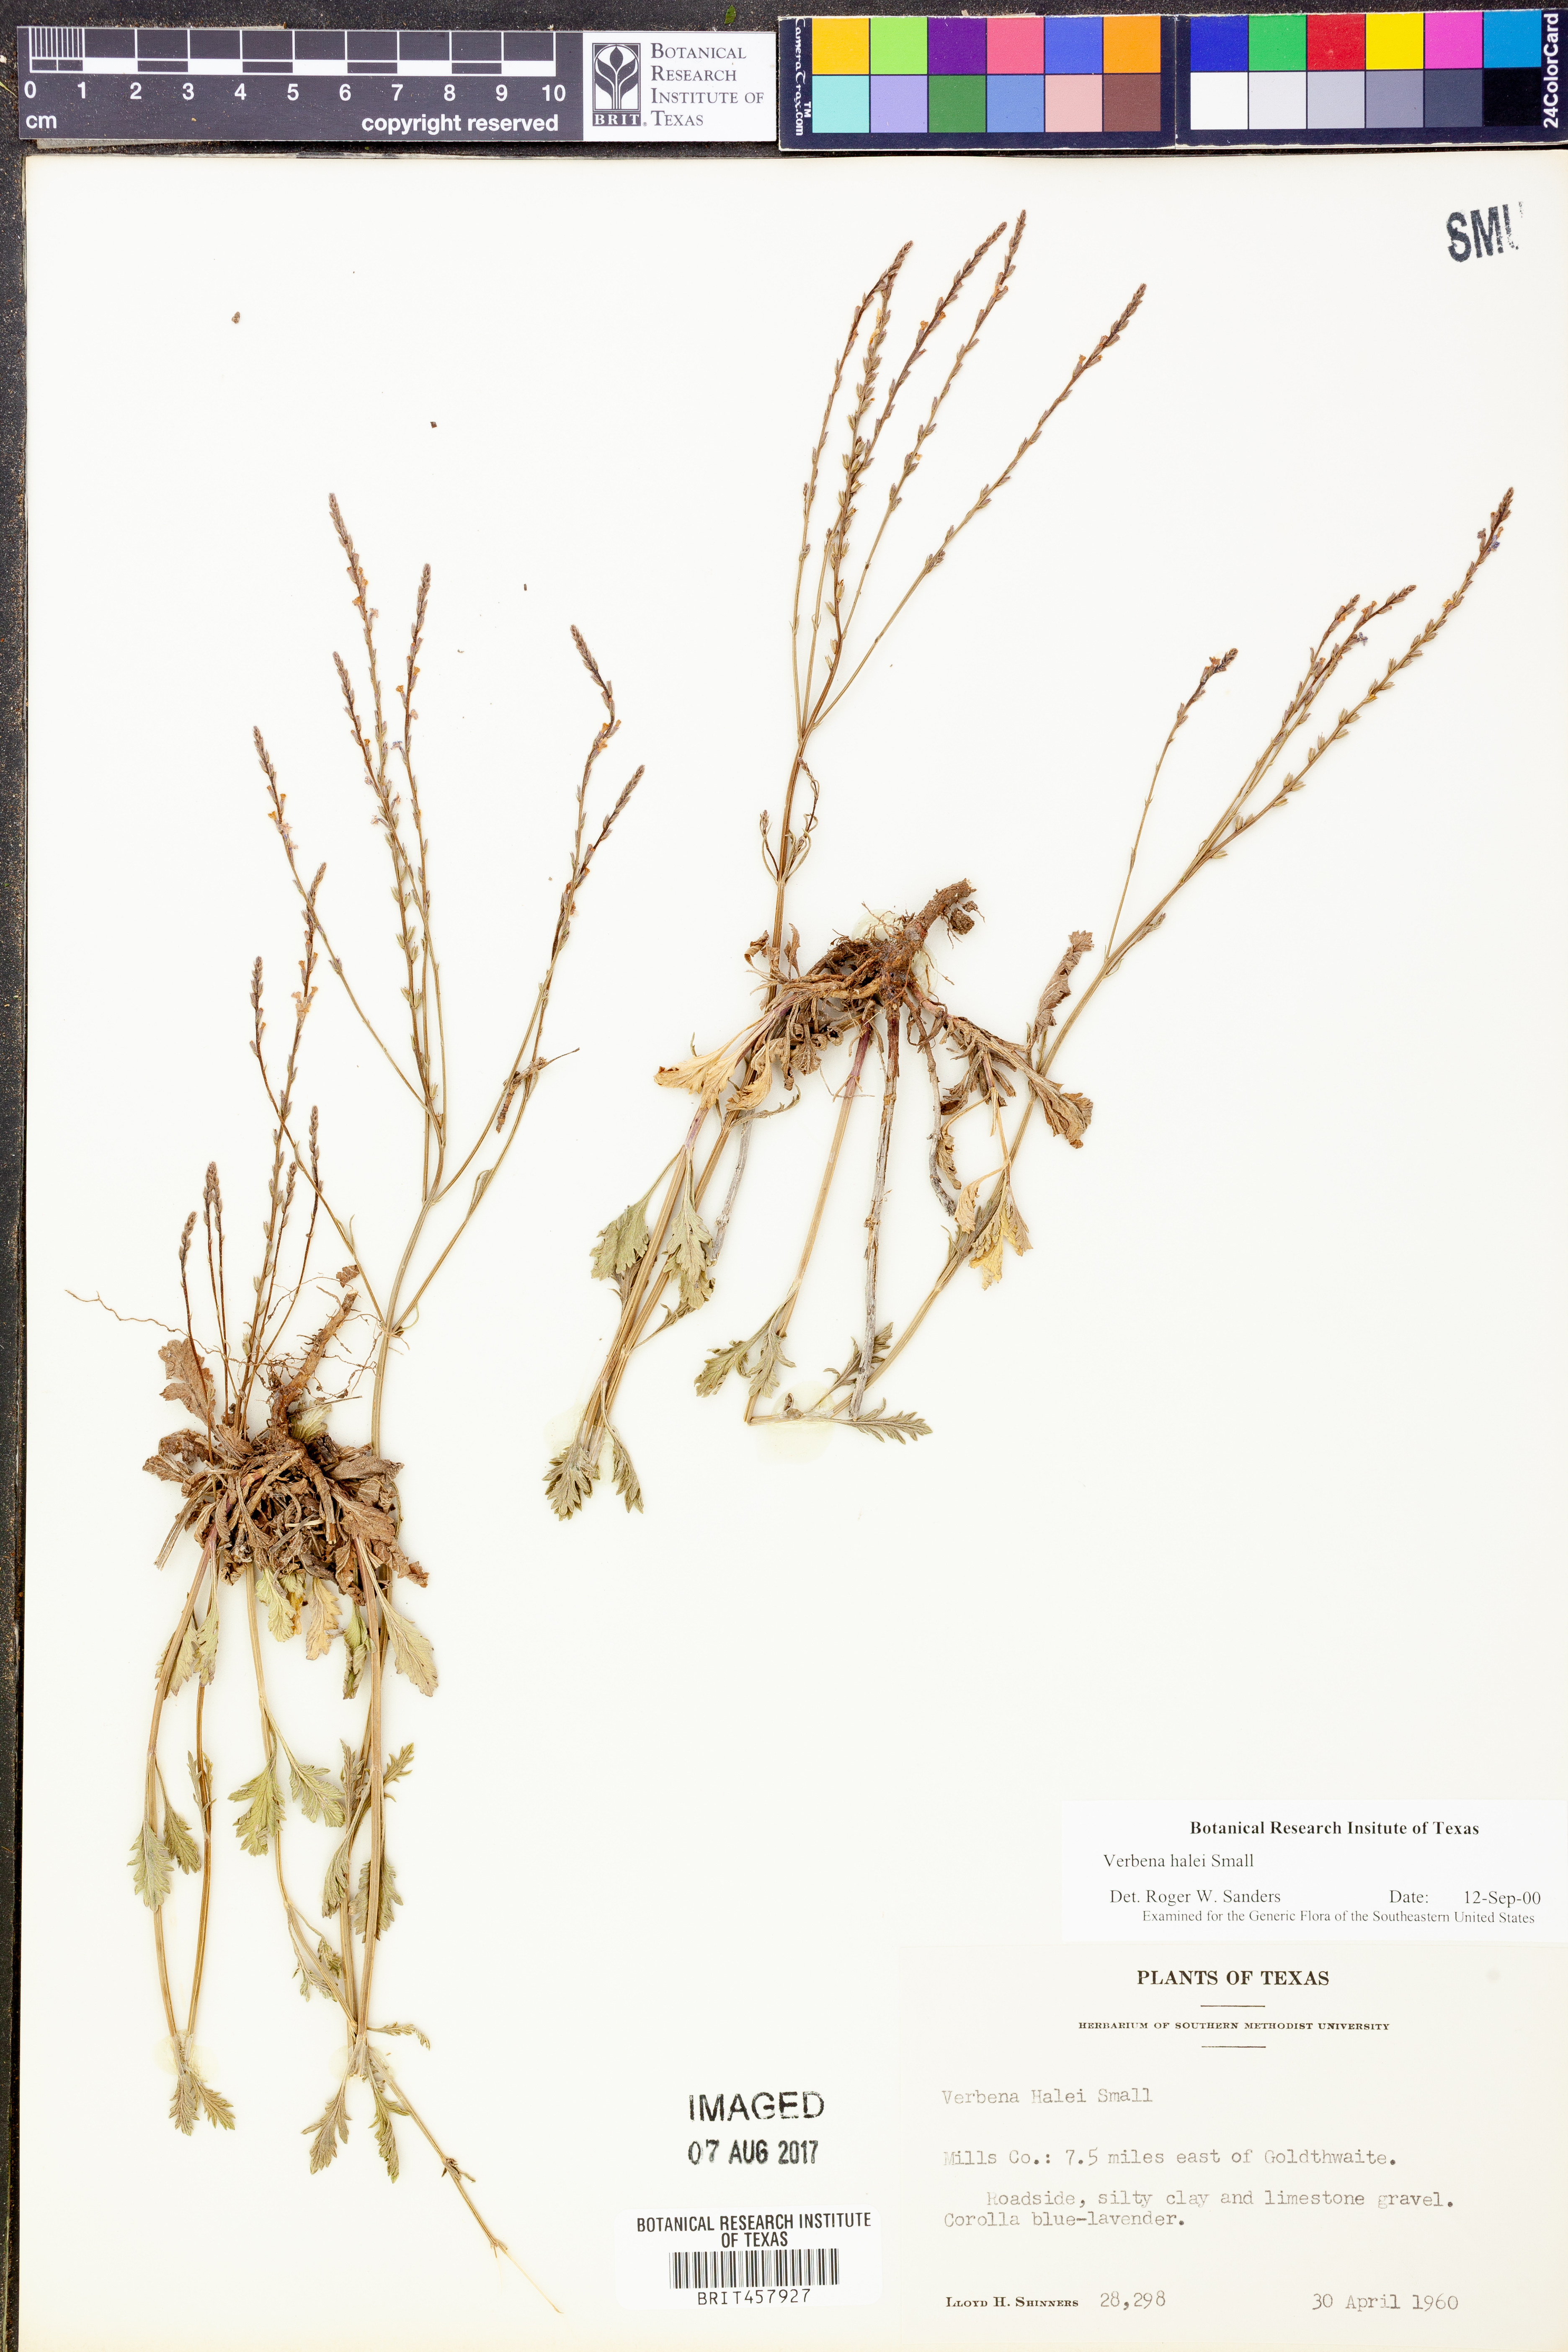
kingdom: Plantae
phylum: Tracheophyta
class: Magnoliopsida
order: Lamiales
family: Verbenaceae
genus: Verbena
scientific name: Verbena halei
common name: Texas vervain
